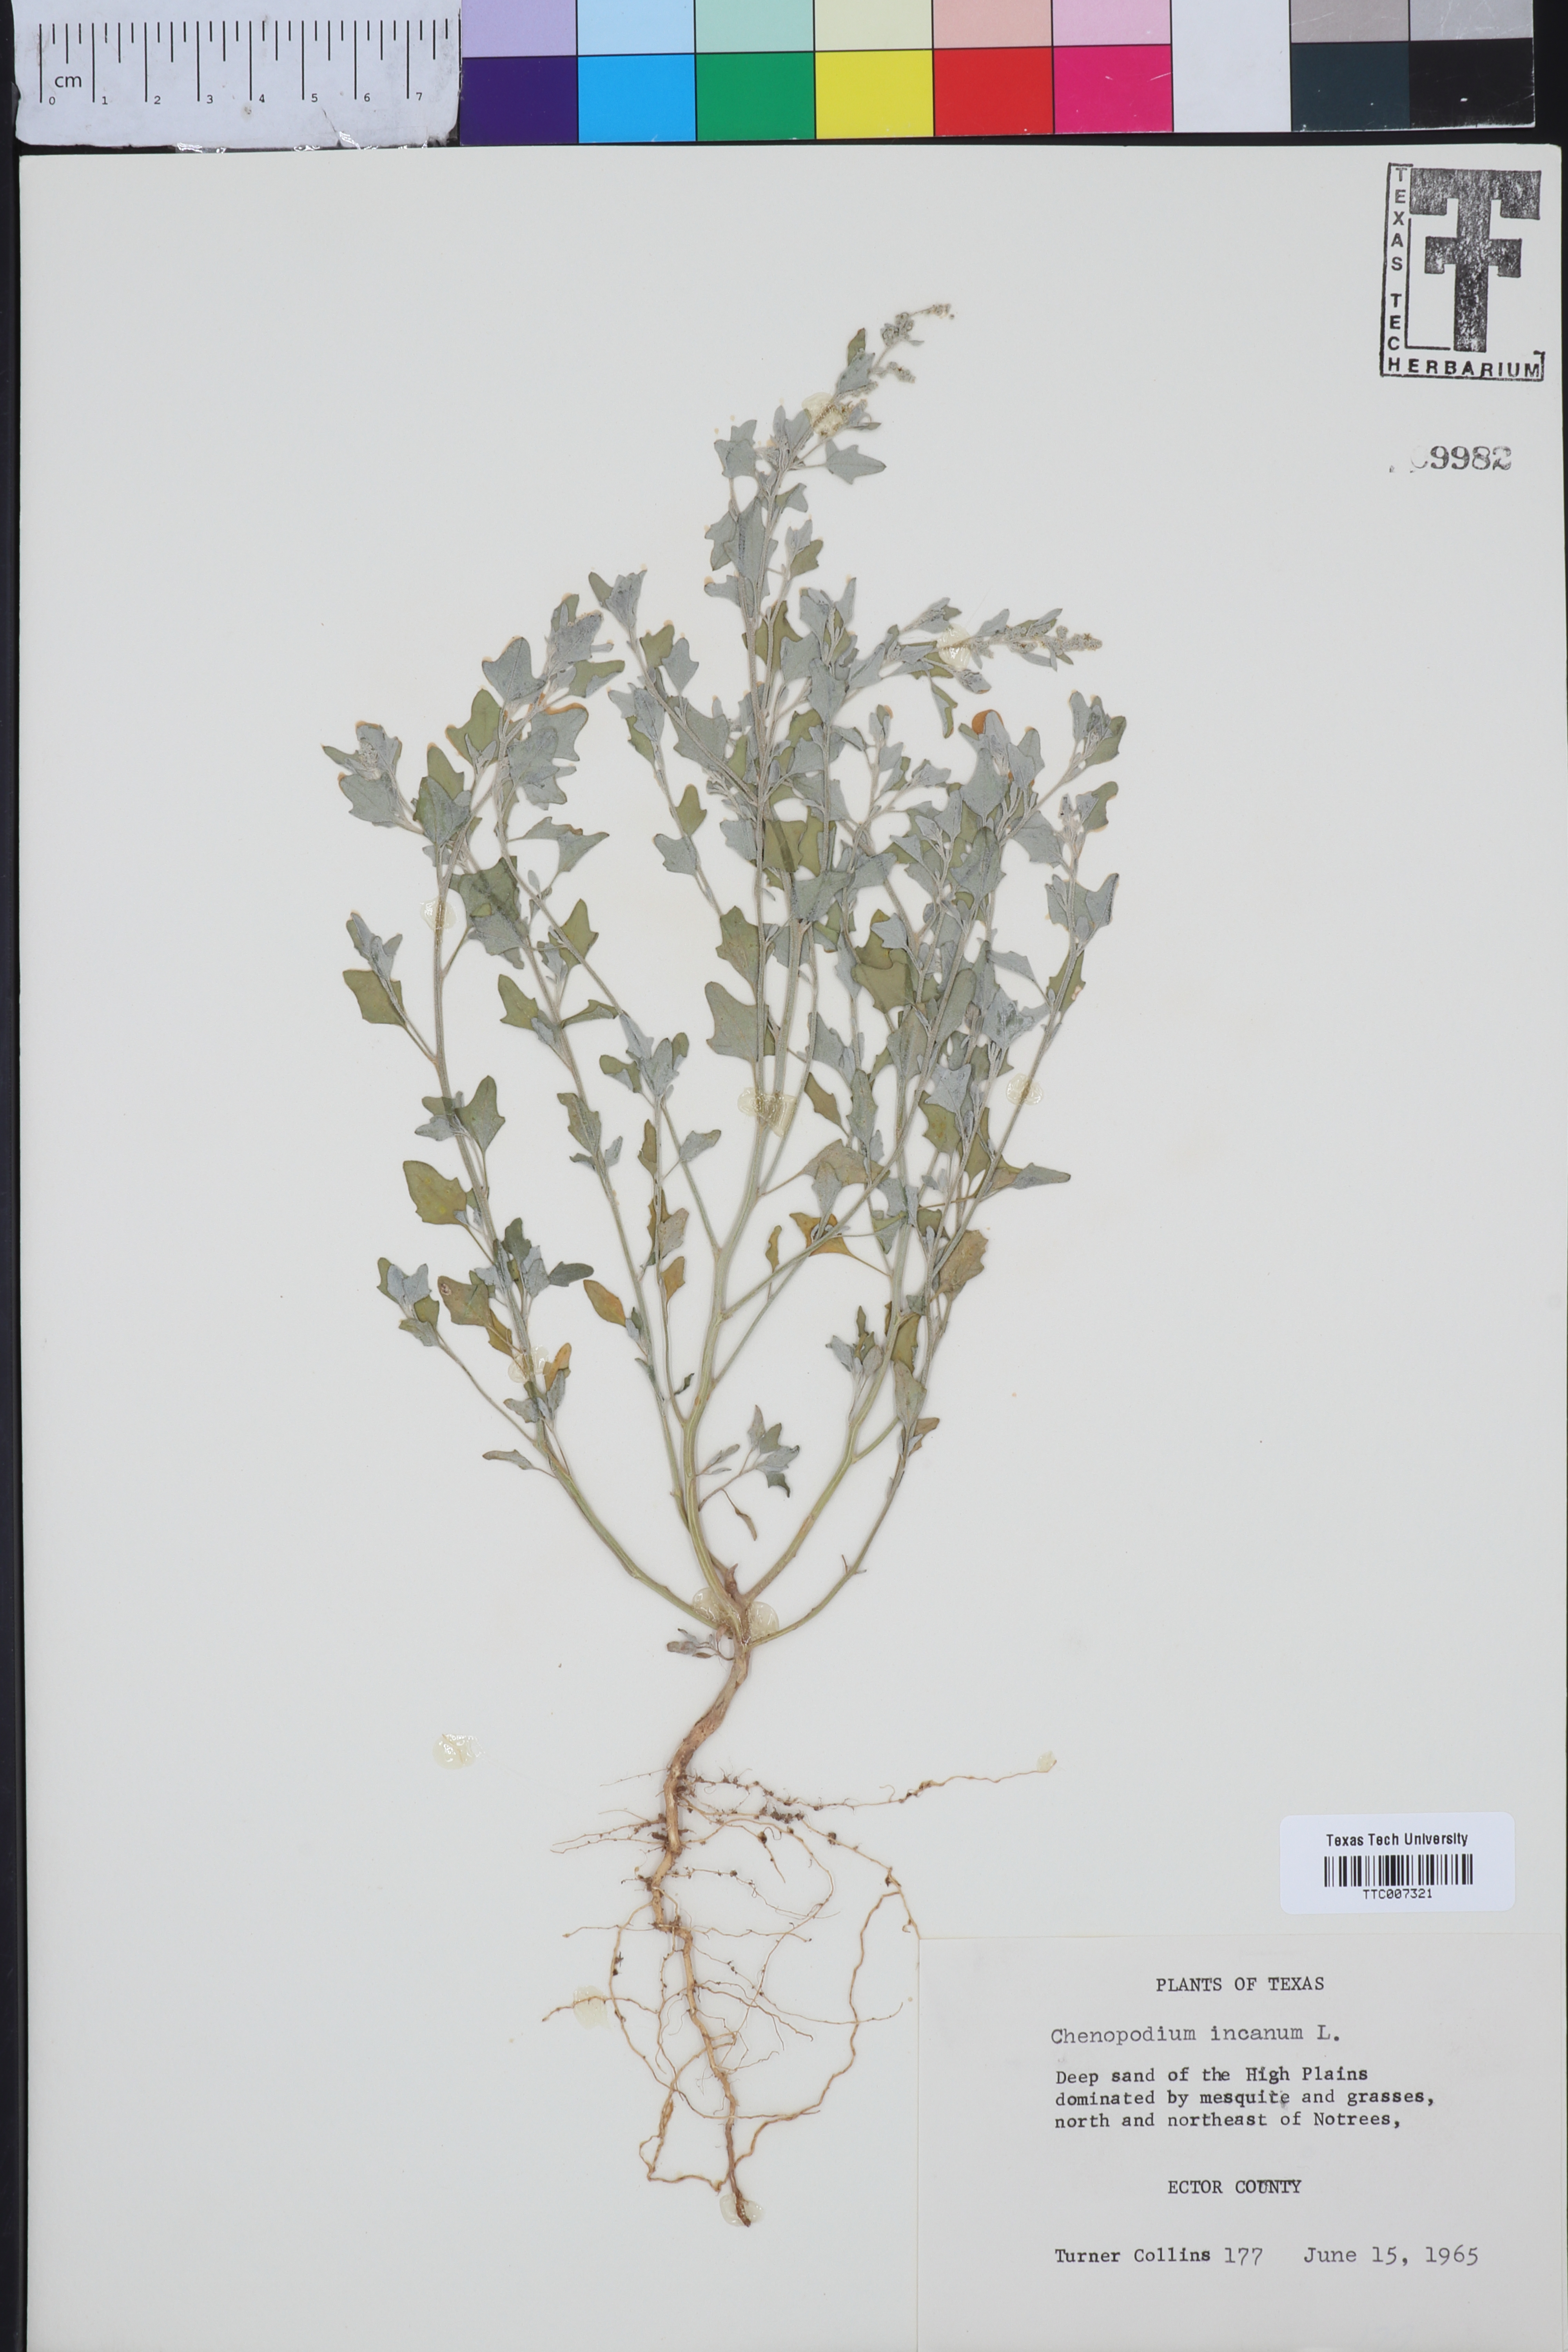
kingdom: Plantae
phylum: Tracheophyta
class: Magnoliopsida
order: Caryophyllales
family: Amaranthaceae
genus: Chenopodium
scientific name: Chenopodium incanum
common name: Hoary goosefoot
